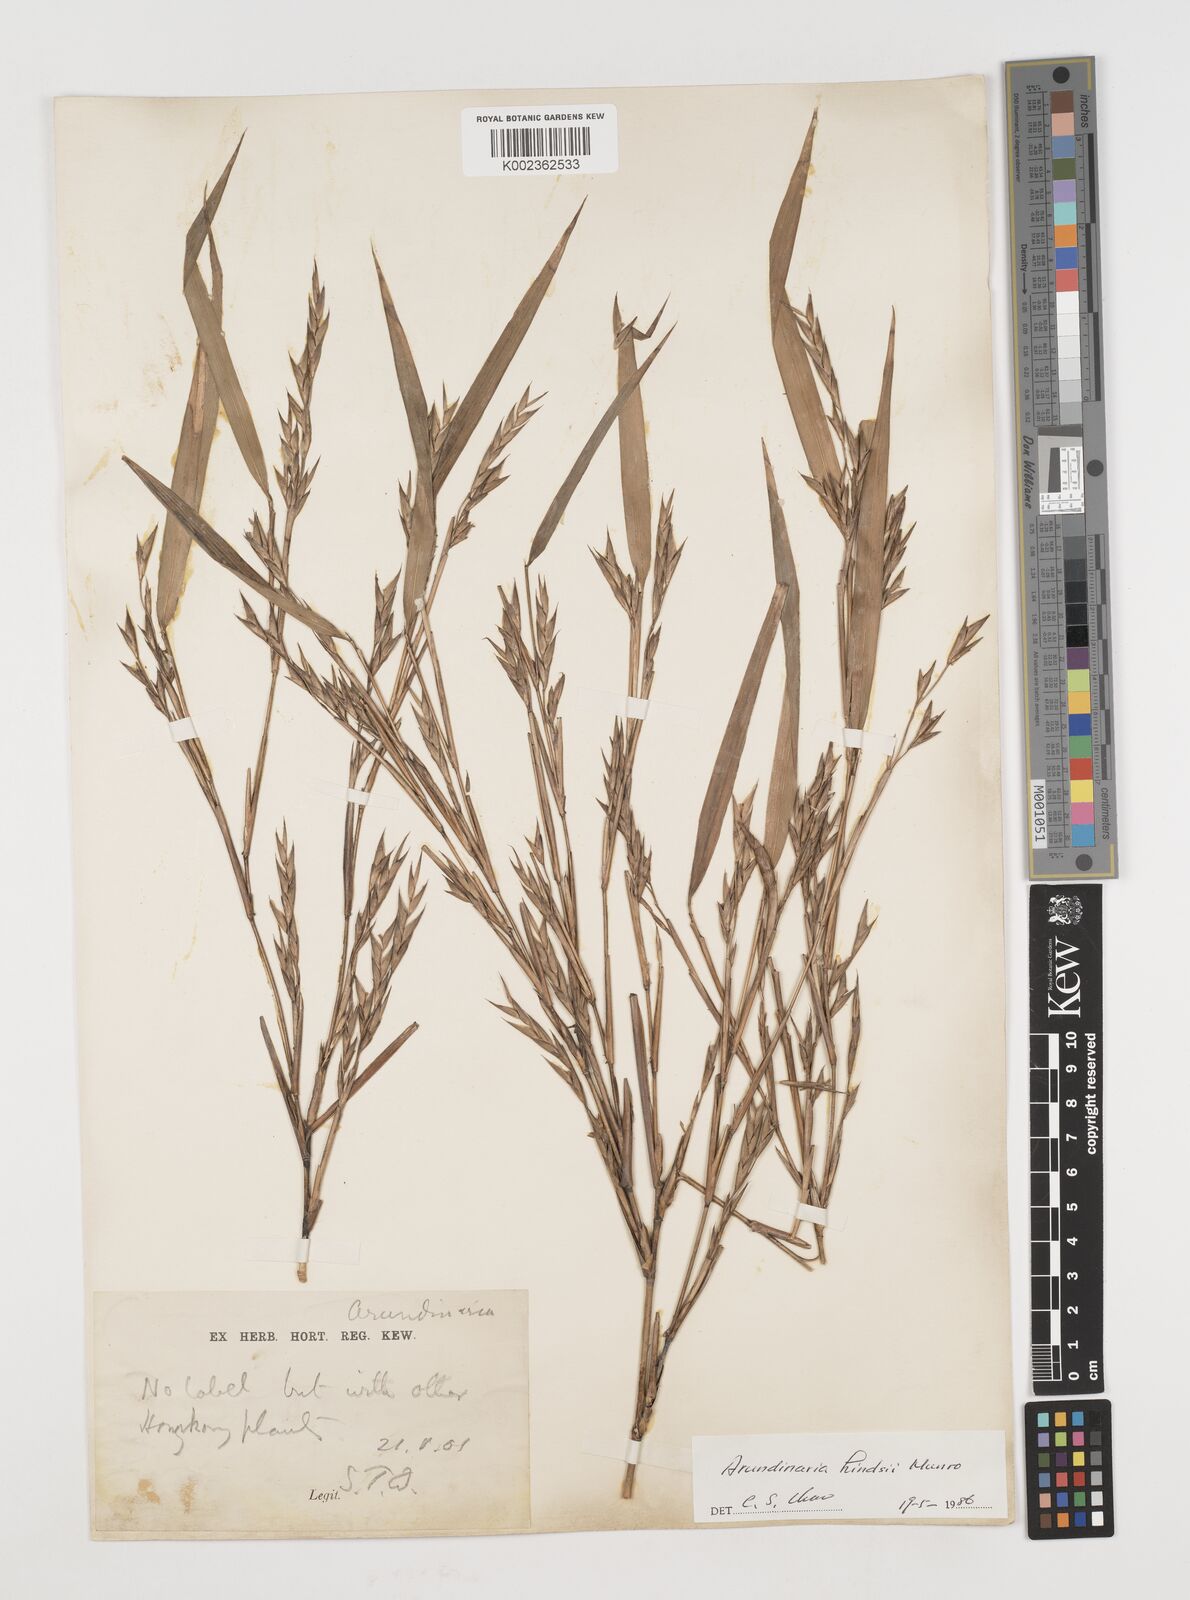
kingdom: Plantae
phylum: Tracheophyta
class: Liliopsida
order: Poales
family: Poaceae
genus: Pseudosasa
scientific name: Pseudosasa hindsii
